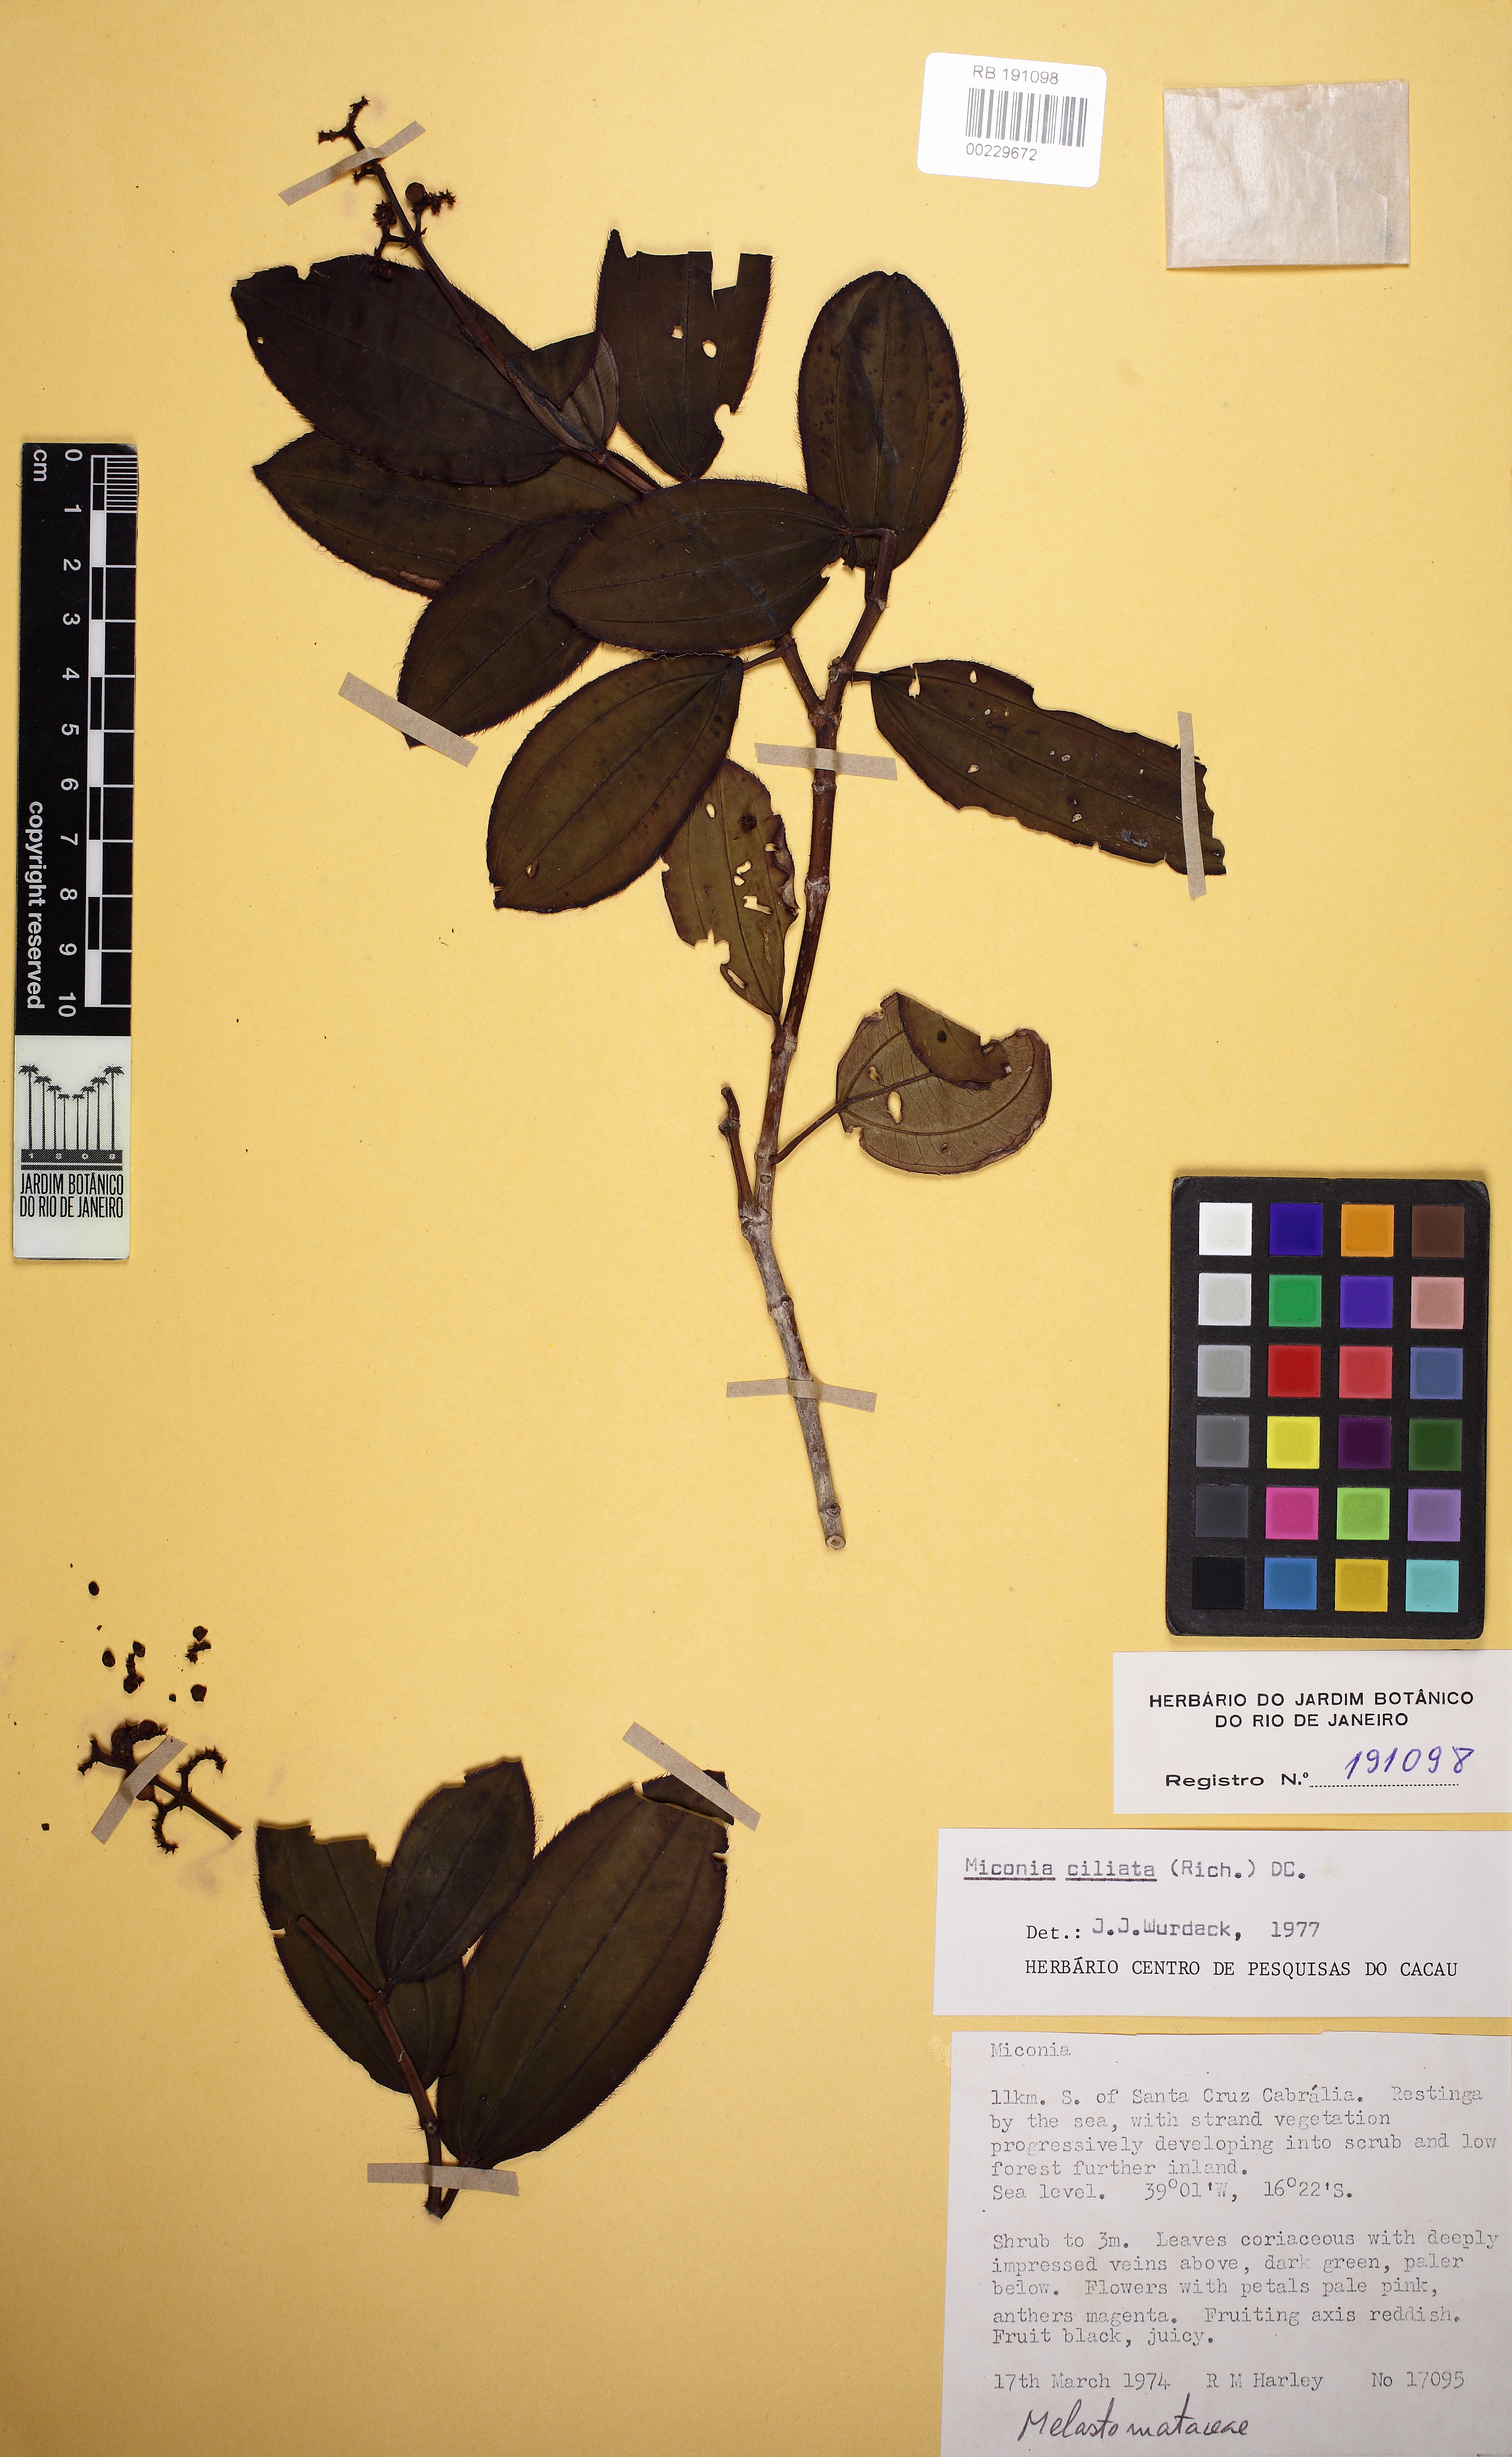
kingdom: Plantae
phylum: Tracheophyta
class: Magnoliopsida
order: Myrtales
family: Melastomataceae
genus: Miconia
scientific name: Miconia ciliata
